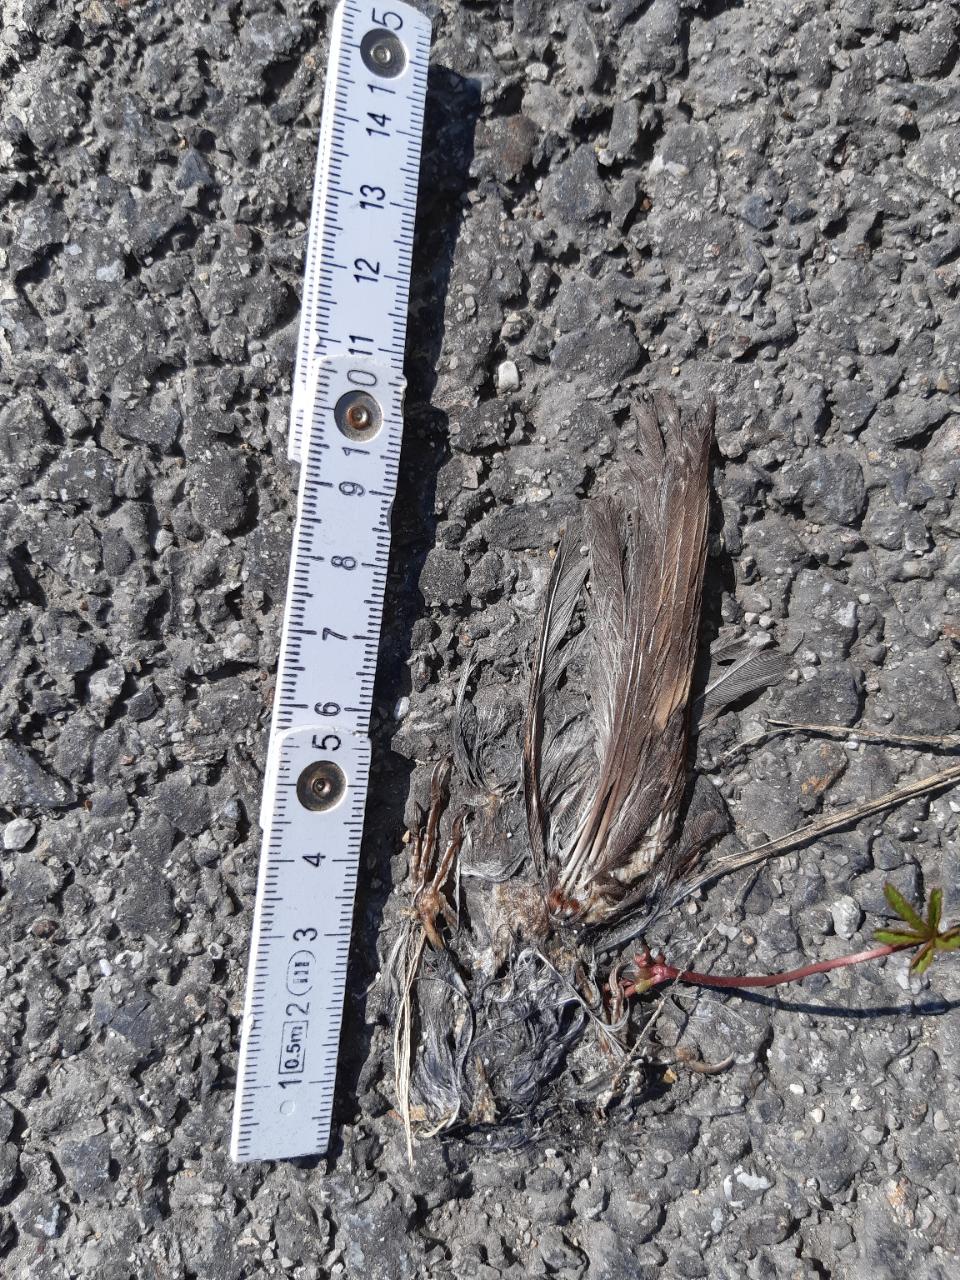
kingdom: Animalia
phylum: Chordata
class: Aves
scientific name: Aves
